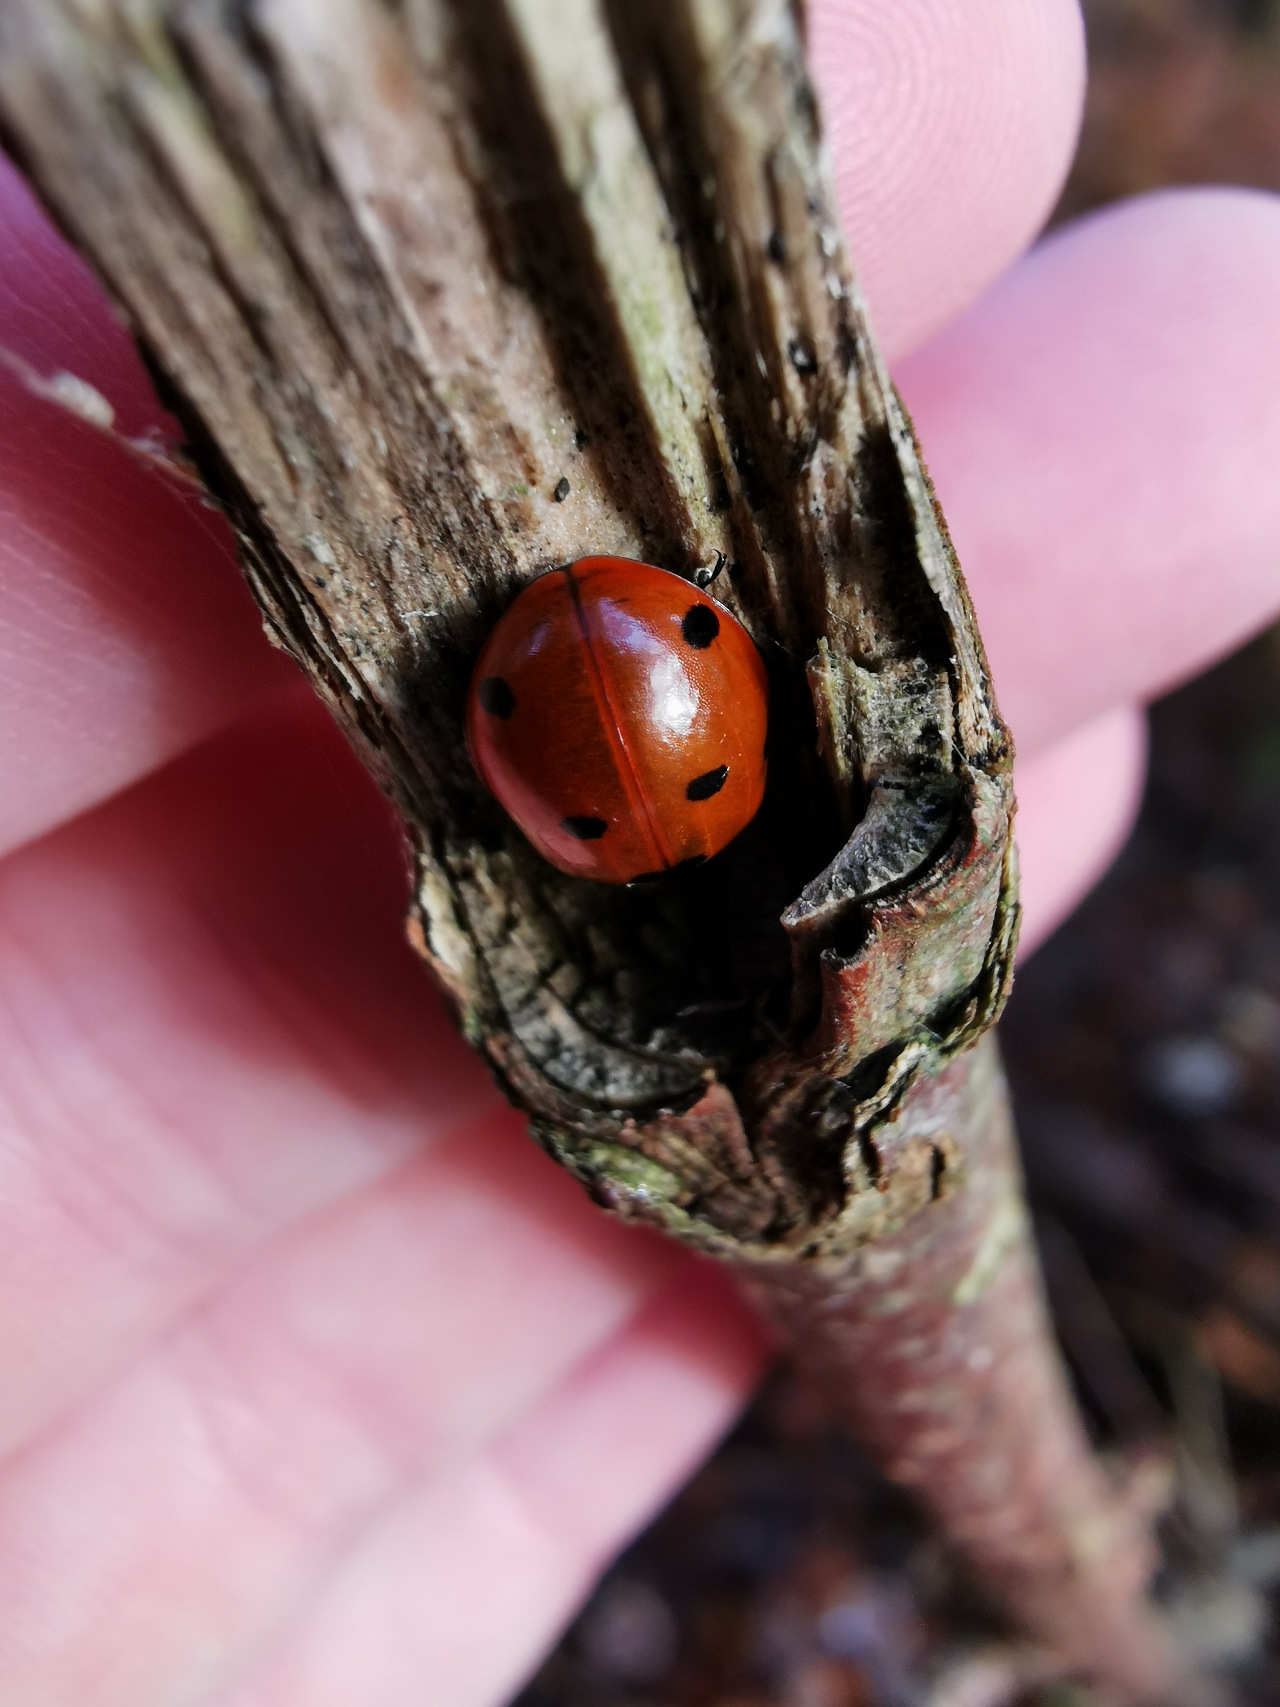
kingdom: Animalia
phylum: Arthropoda
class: Insecta
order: Coleoptera
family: Coccinellidae
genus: Coccinella
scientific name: Coccinella septempunctata
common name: Syvplettet mariehøne
